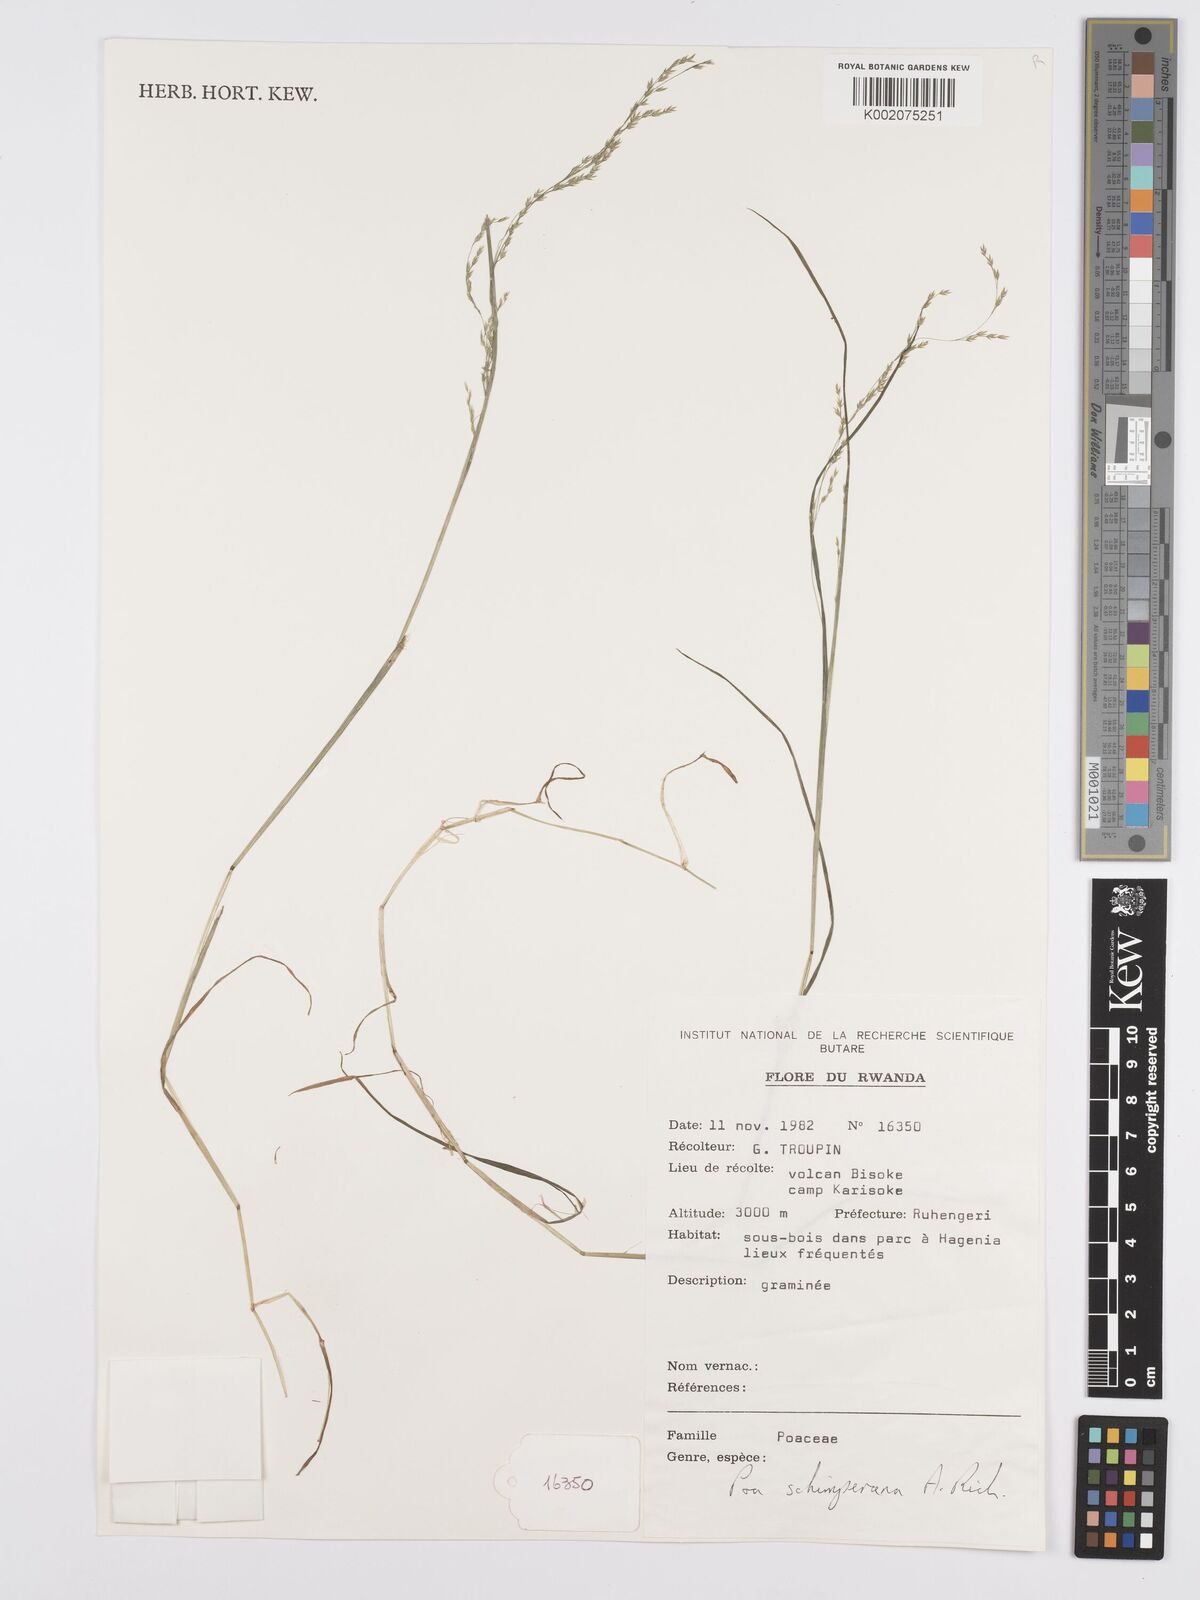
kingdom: Plantae
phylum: Tracheophyta
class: Liliopsida
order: Poales
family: Poaceae
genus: Poa
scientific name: Poa schimperiana
